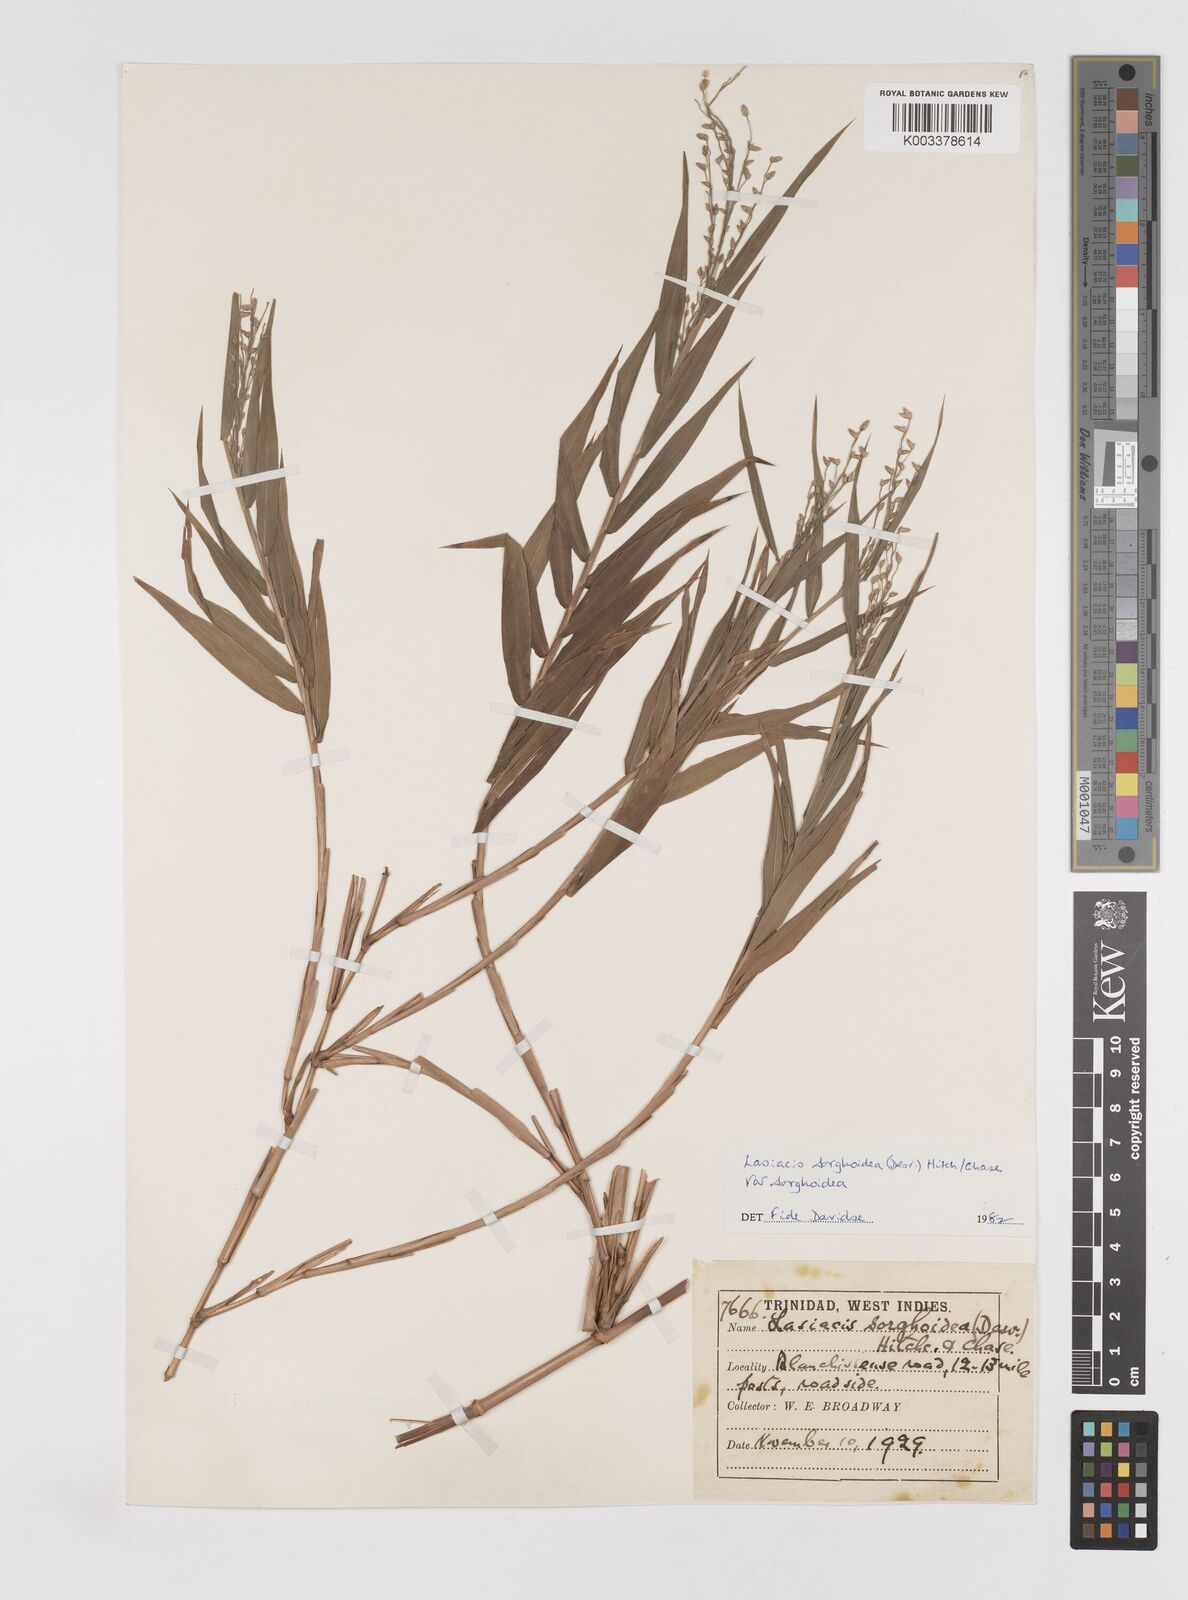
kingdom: Plantae
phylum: Tracheophyta
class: Liliopsida
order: Poales
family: Poaceae
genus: Lasiacis
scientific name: Lasiacis maculata
